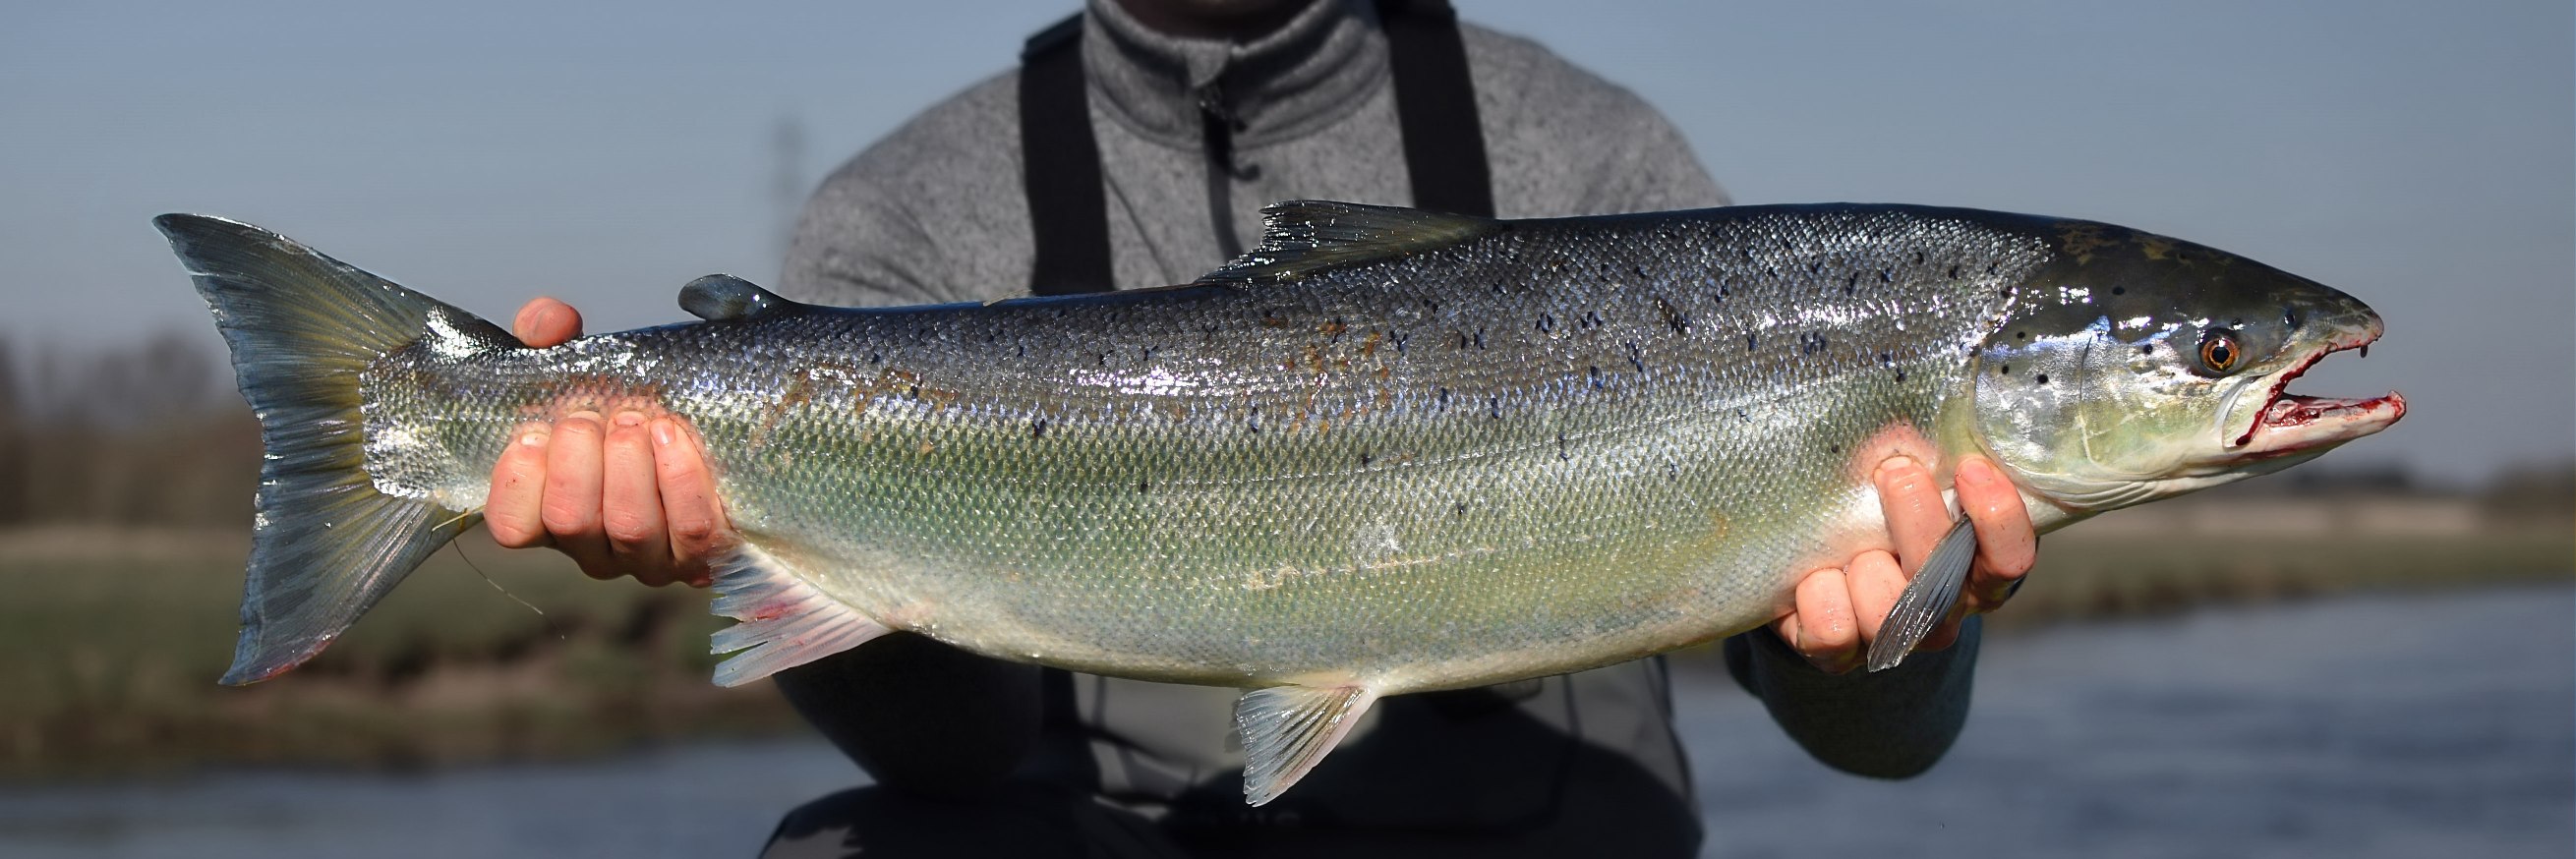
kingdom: Animalia
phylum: Chordata
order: Salmoniformes
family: Salmonidae
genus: Salmo
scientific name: Salmo salar
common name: Laks
